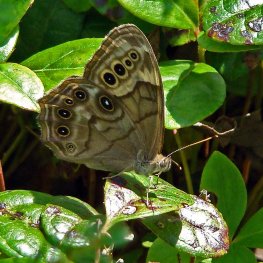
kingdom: Animalia
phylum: Arthropoda
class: Insecta
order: Lepidoptera
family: Nymphalidae
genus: Lethe
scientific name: Lethe anthedon
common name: Northern Pearly-Eye
